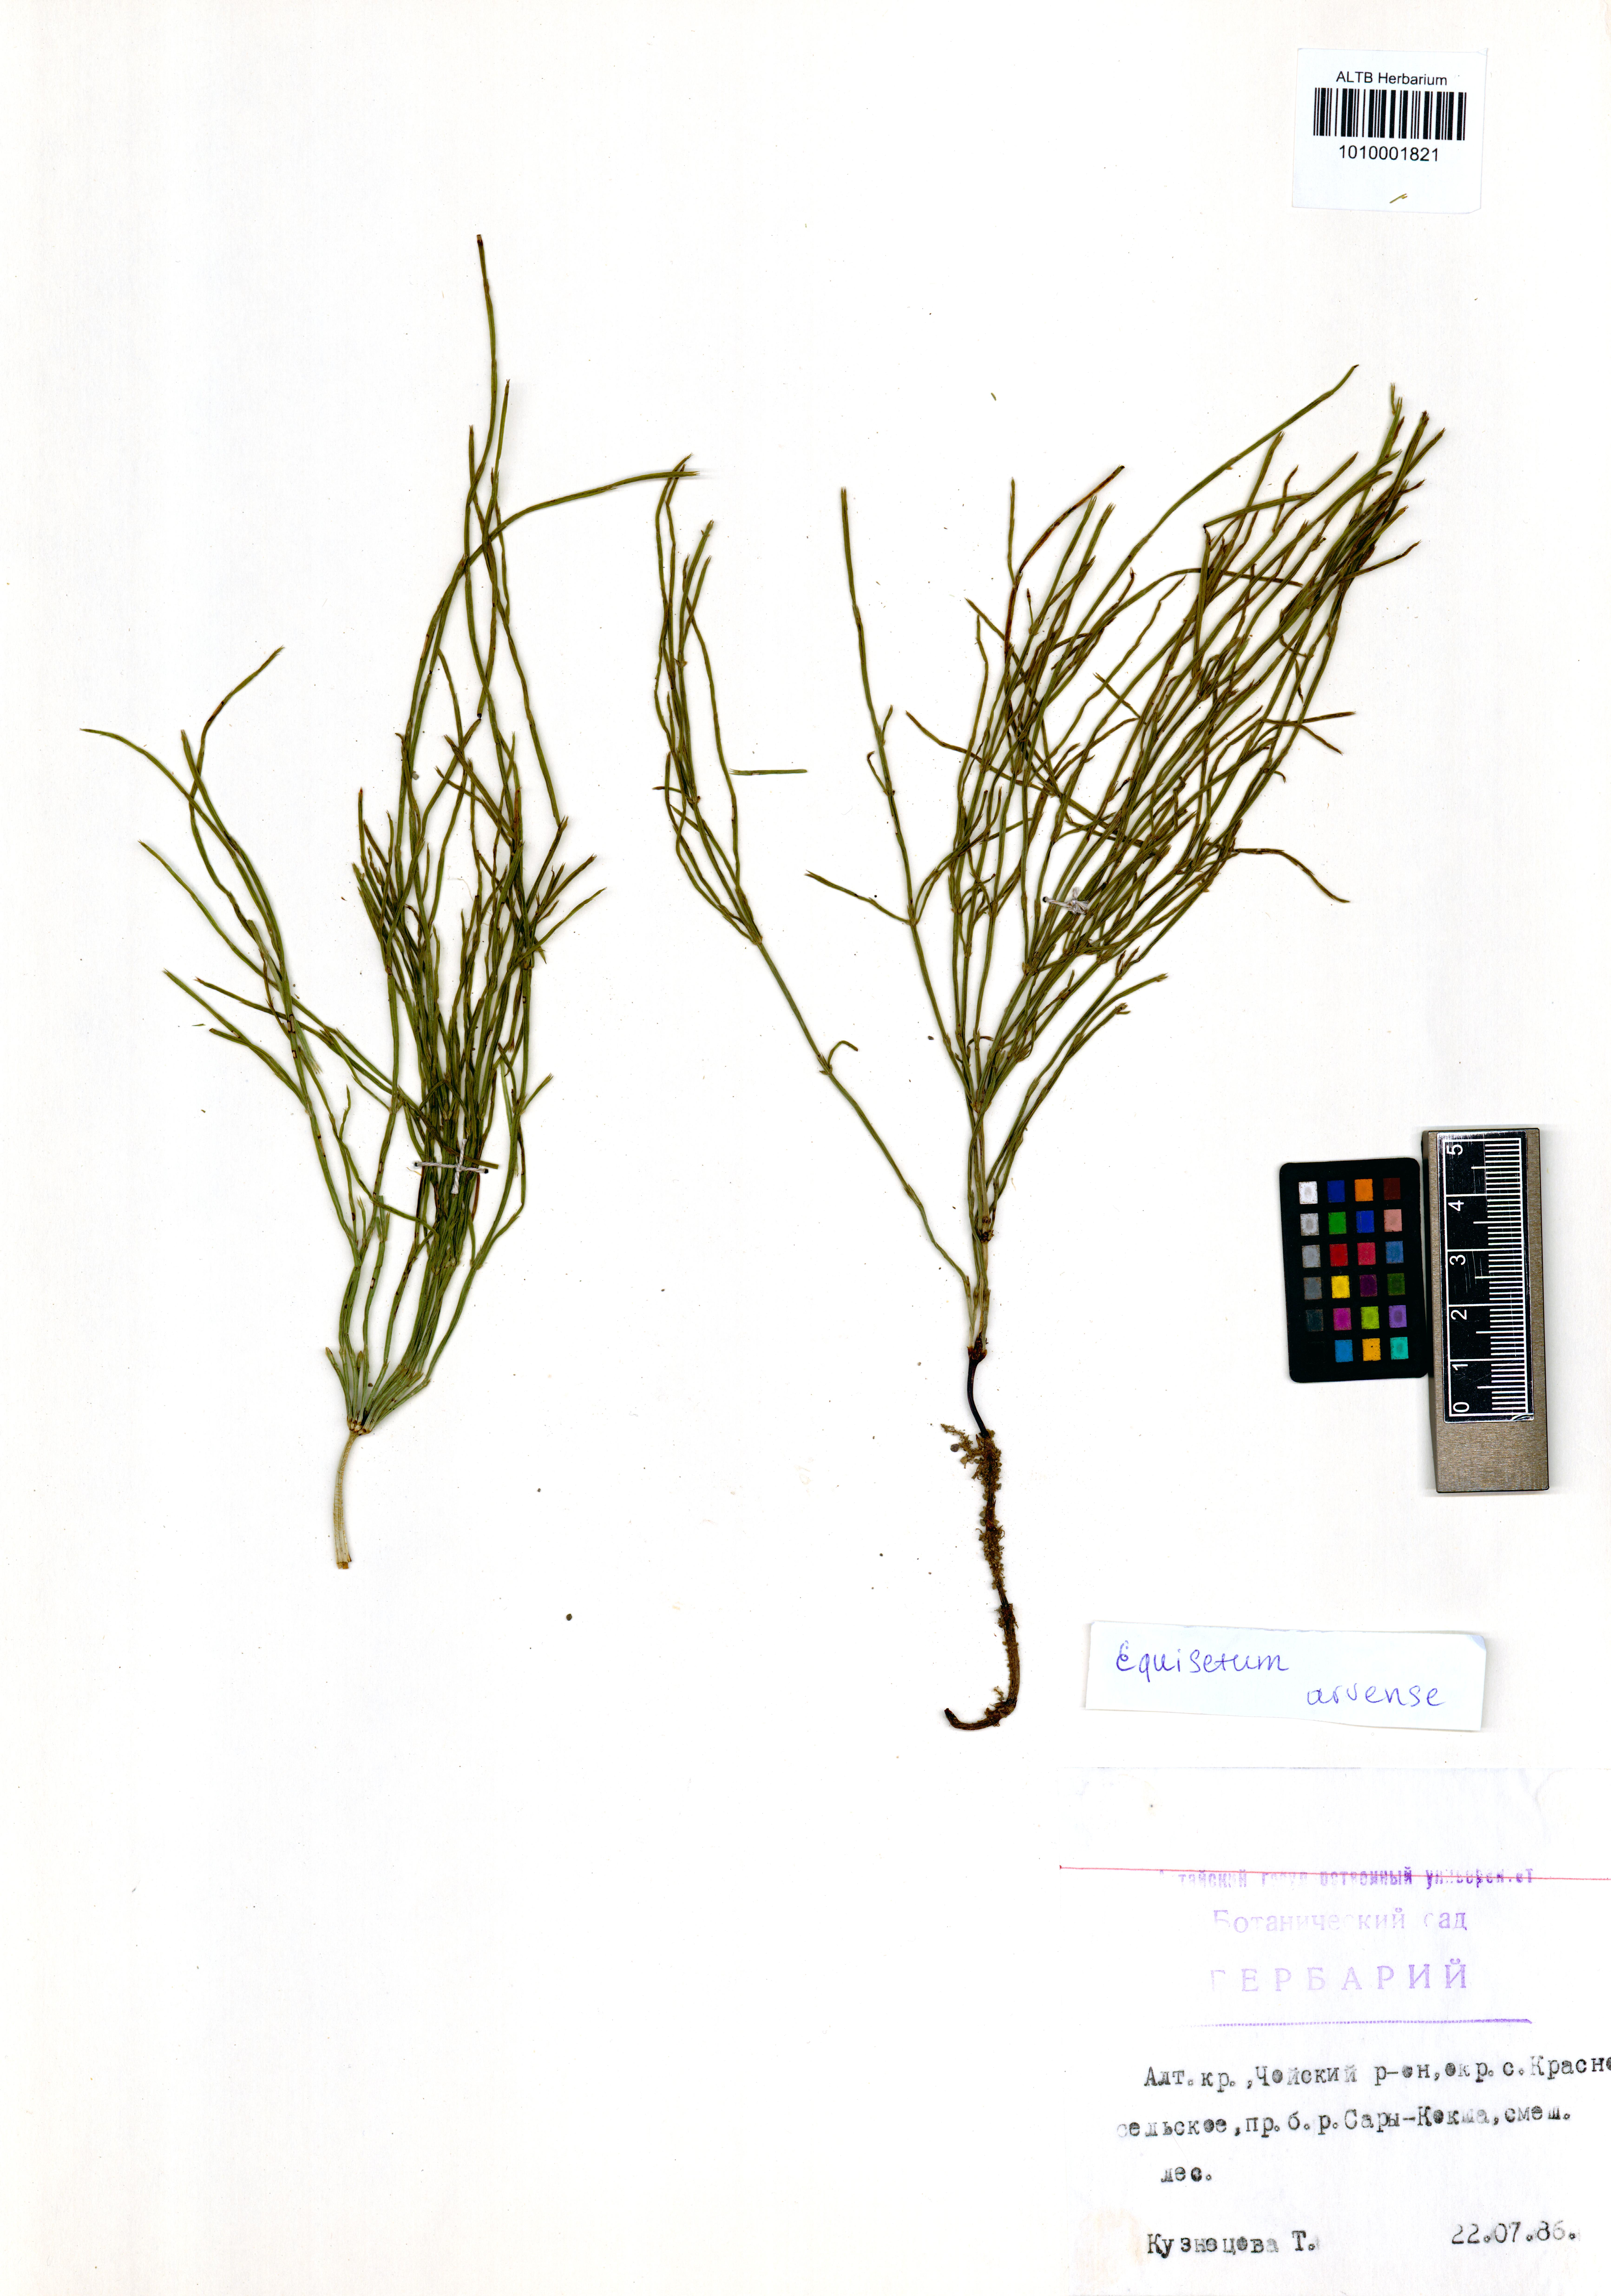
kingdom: Plantae
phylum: Tracheophyta
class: Polypodiopsida
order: Equisetales
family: Equisetaceae
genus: Equisetum
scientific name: Equisetum arvense
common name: Field horsetail
